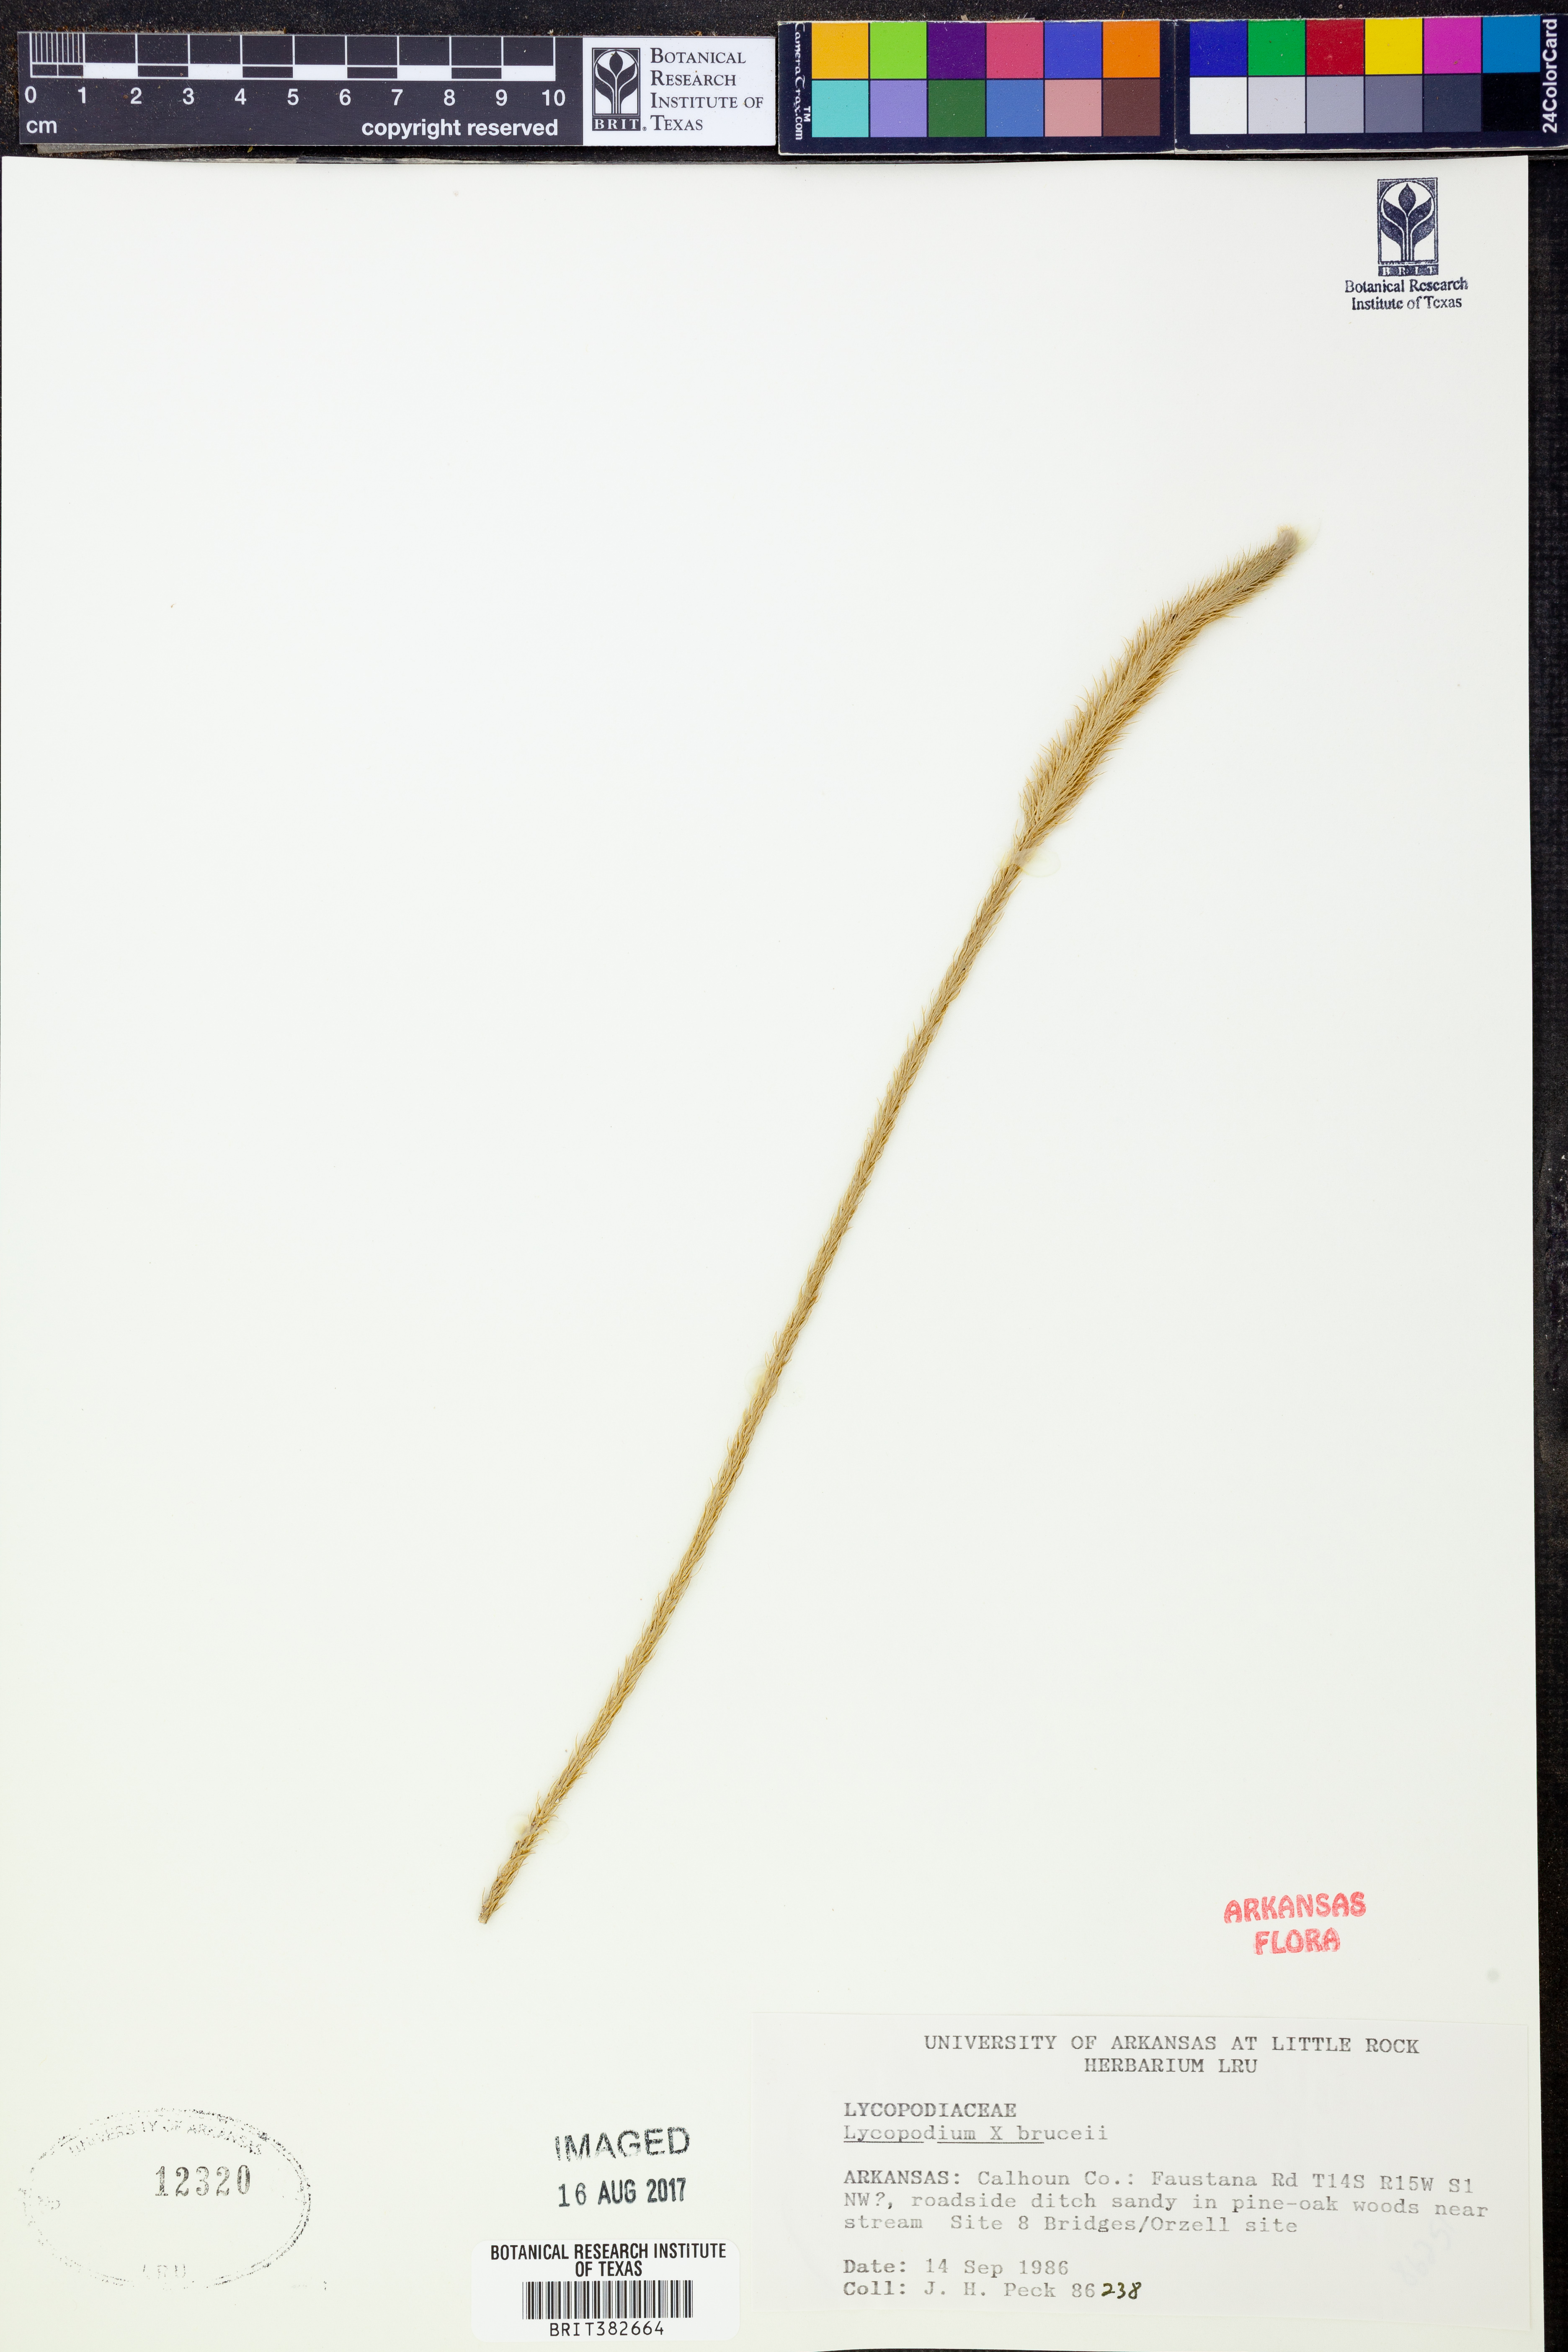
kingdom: Plantae
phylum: Tracheophyta
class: Lycopodiopsida
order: Lycopodiales
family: Lycopodiaceae
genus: Lycopodiella
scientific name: Lycopodiella brucei
